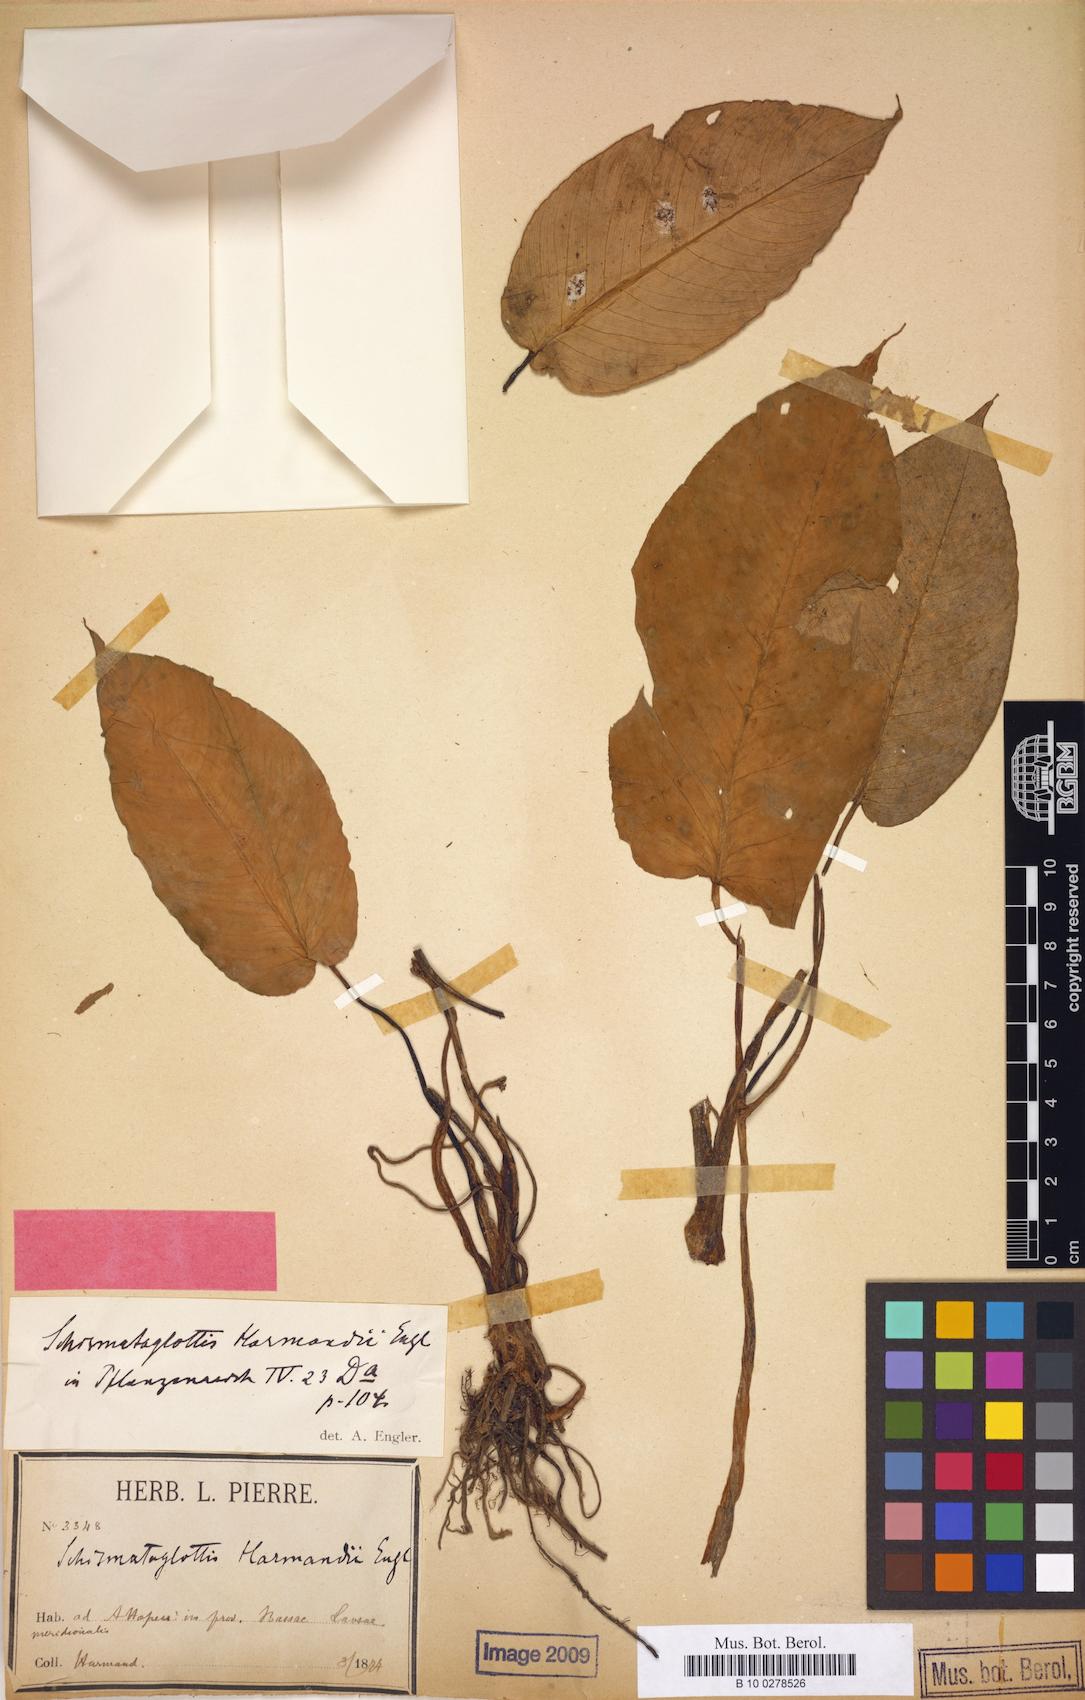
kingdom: Plantae
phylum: Tracheophyta
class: Liliopsida
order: Alismatales
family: Araceae
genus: Schismatoglottis
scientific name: Schismatoglottis harmandii
